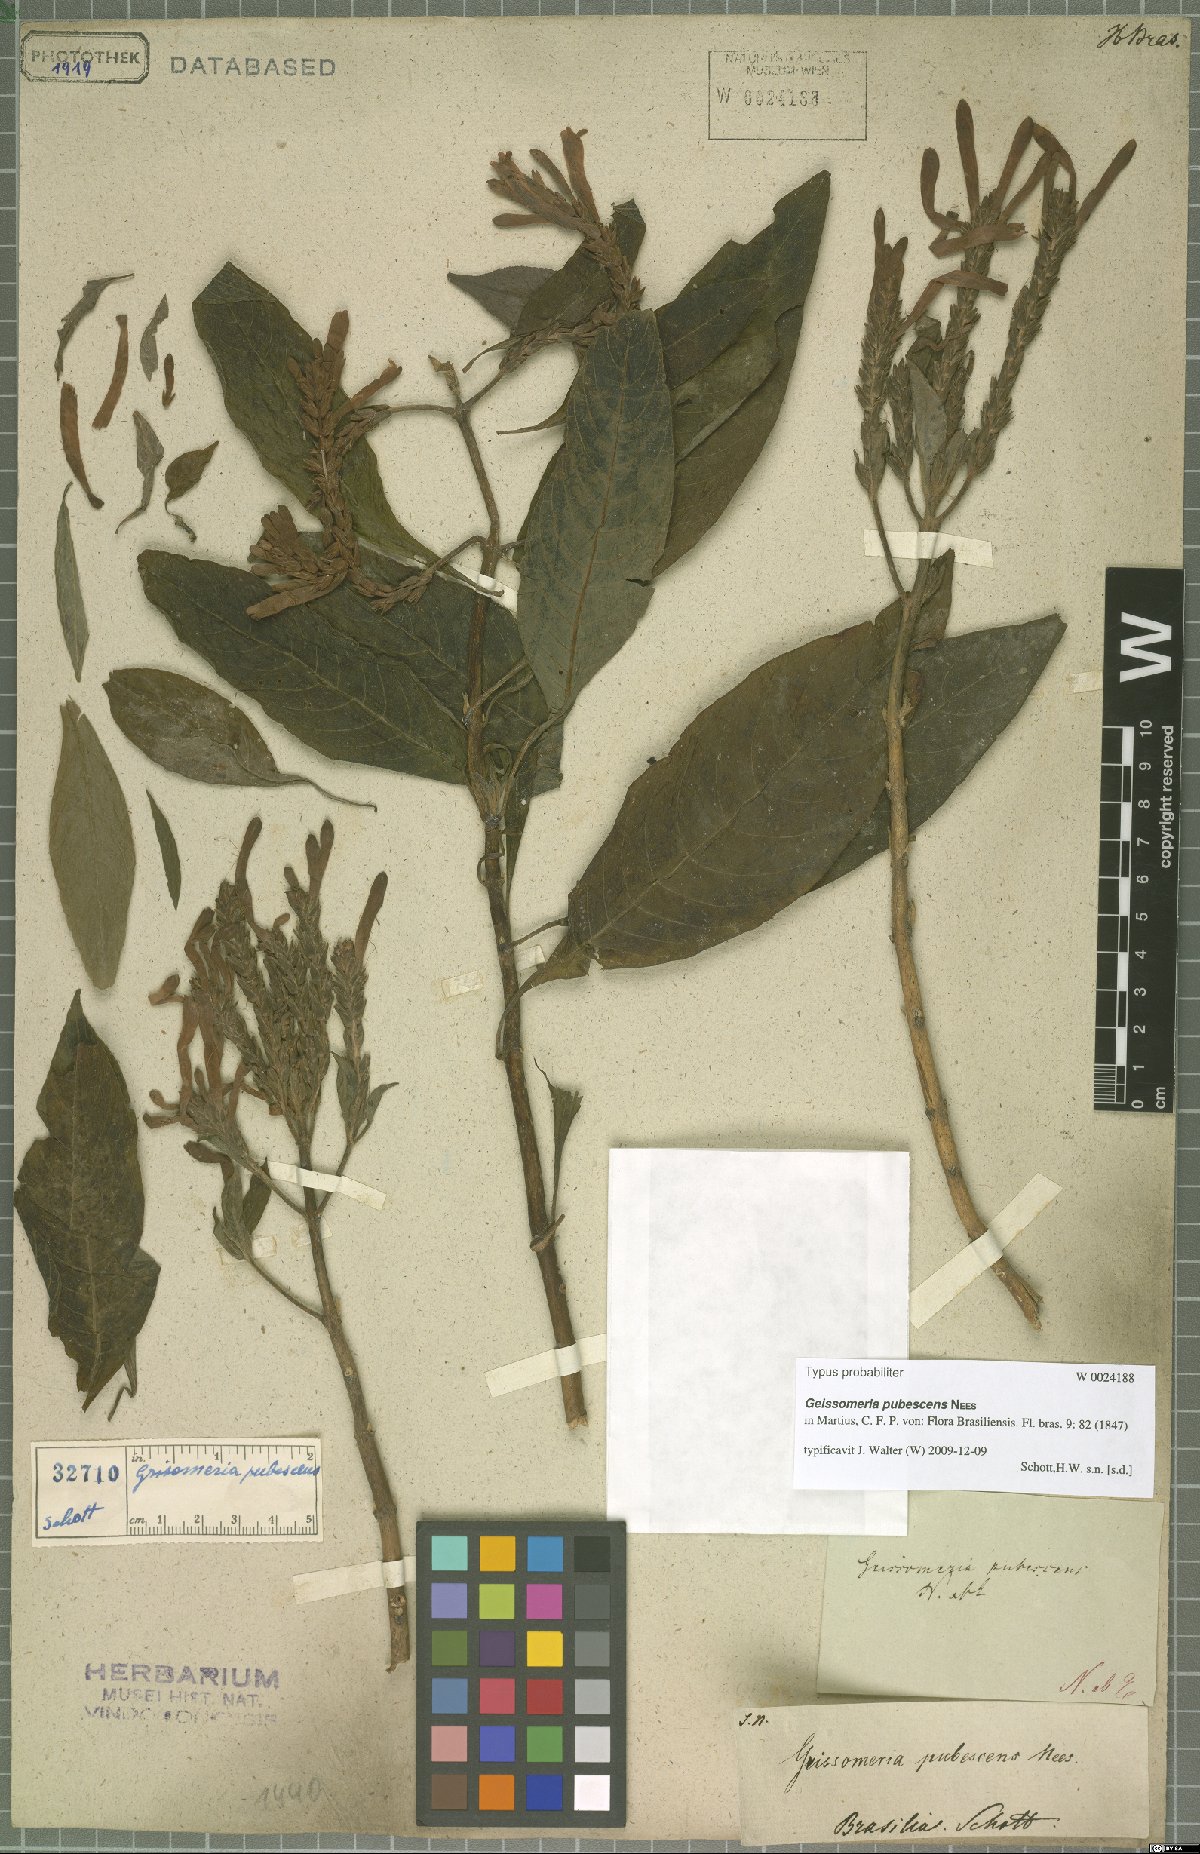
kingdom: Plantae
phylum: Tracheophyta
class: Magnoliopsida
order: Lamiales
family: Acanthaceae
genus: Aphelandra
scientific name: Aphelandra longiflora
